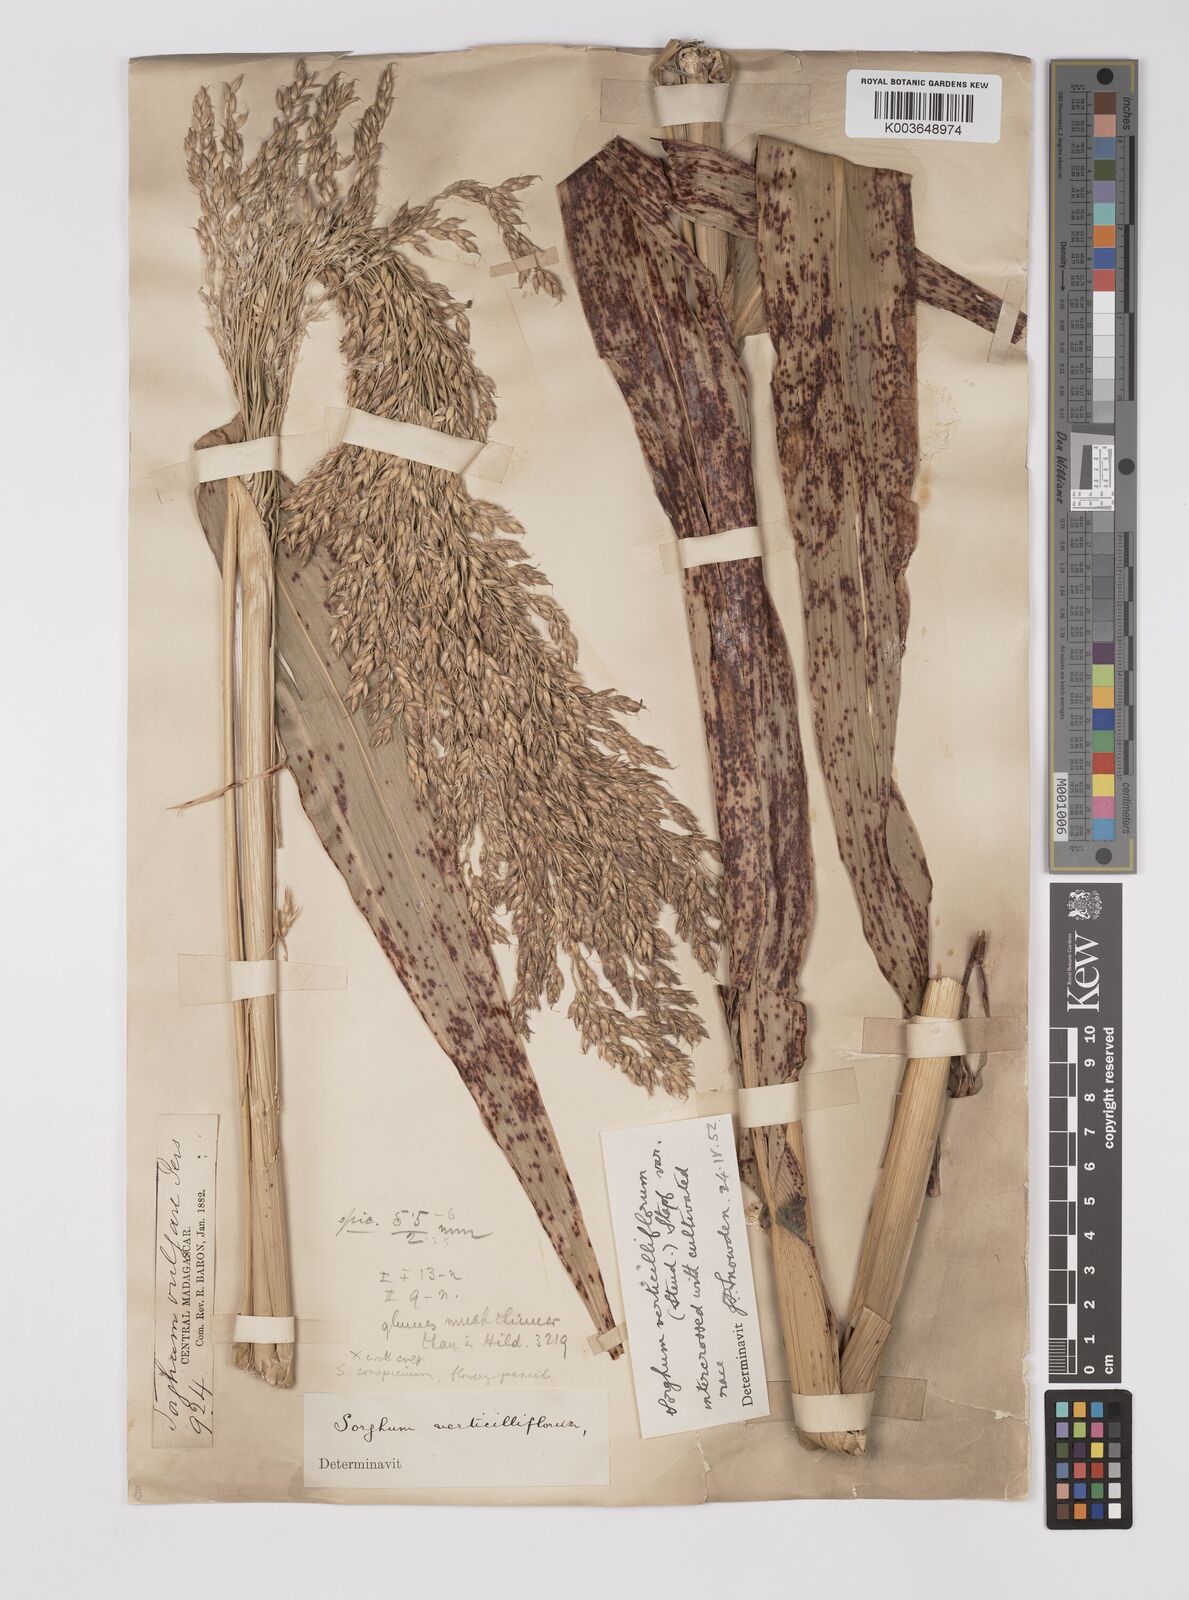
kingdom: Plantae
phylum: Tracheophyta
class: Liliopsida
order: Poales
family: Poaceae
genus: Sorghum
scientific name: Sorghum arundinaceum
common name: Sorghum
